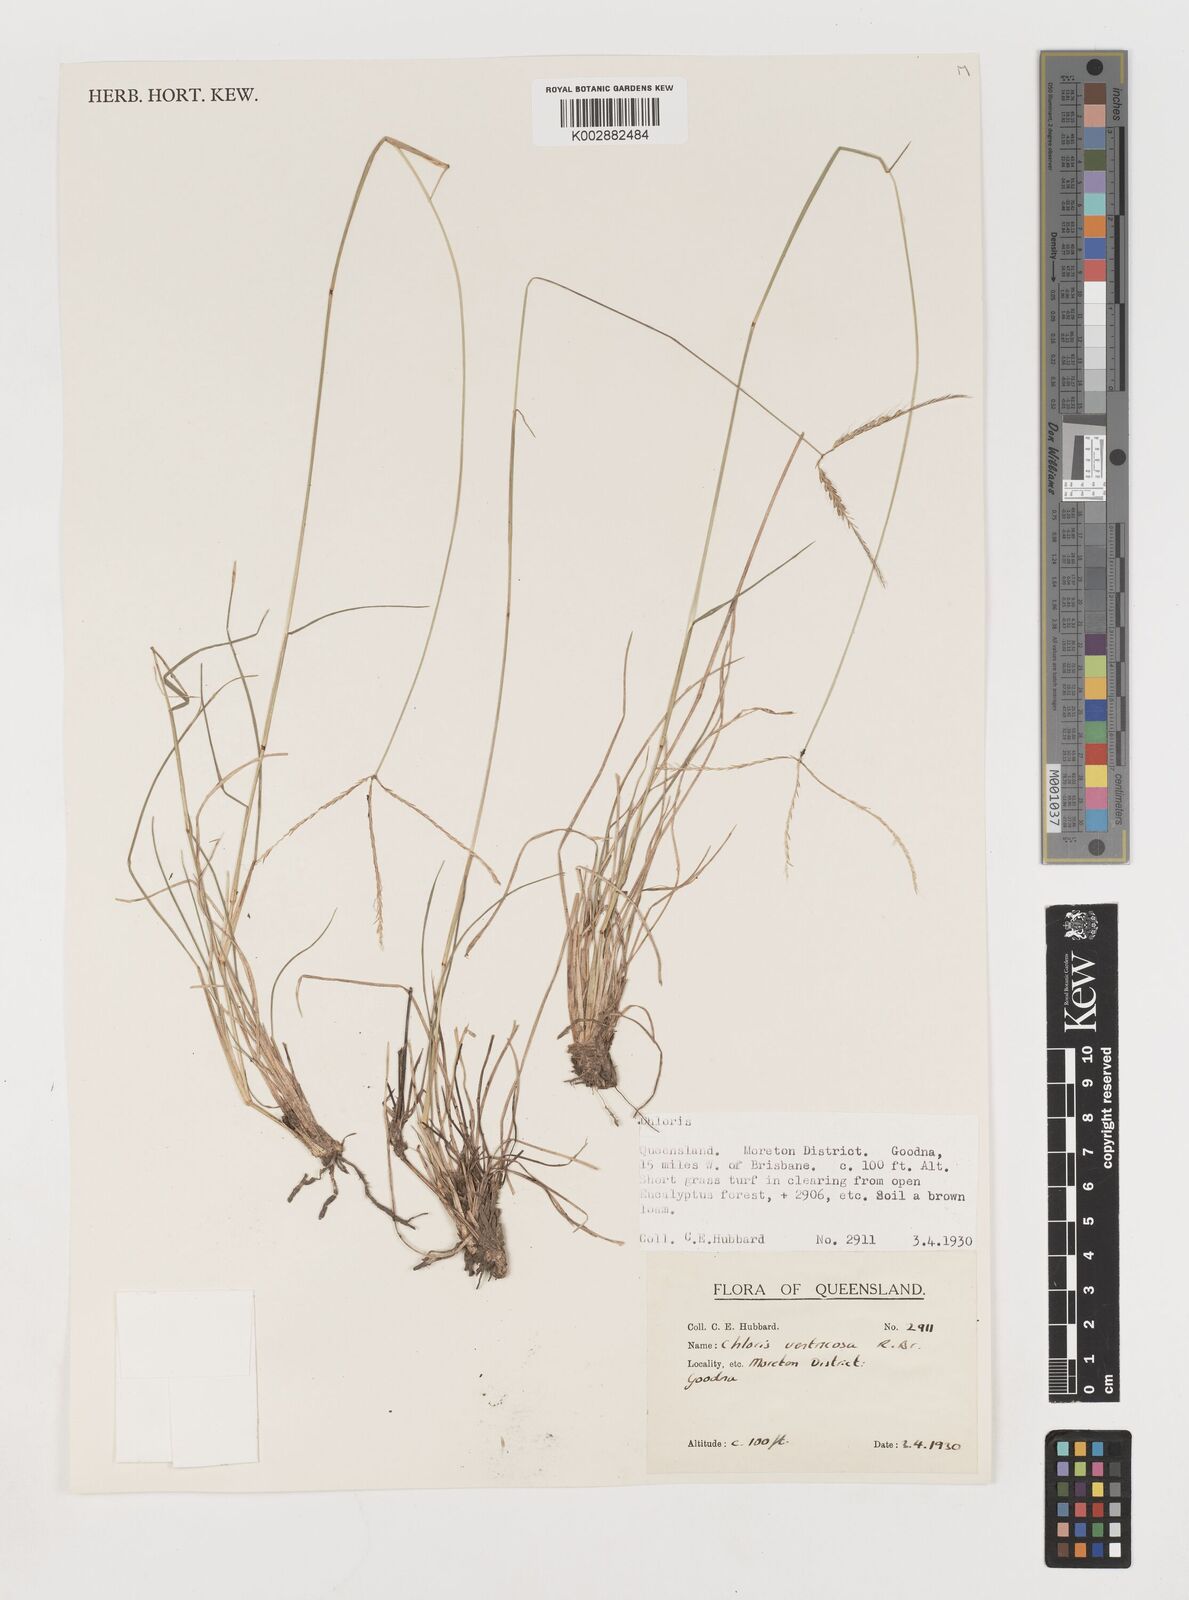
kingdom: Plantae
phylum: Tracheophyta
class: Liliopsida
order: Poales
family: Poaceae
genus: Chloris
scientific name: Chloris ventricosa
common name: Australian windmill grass
